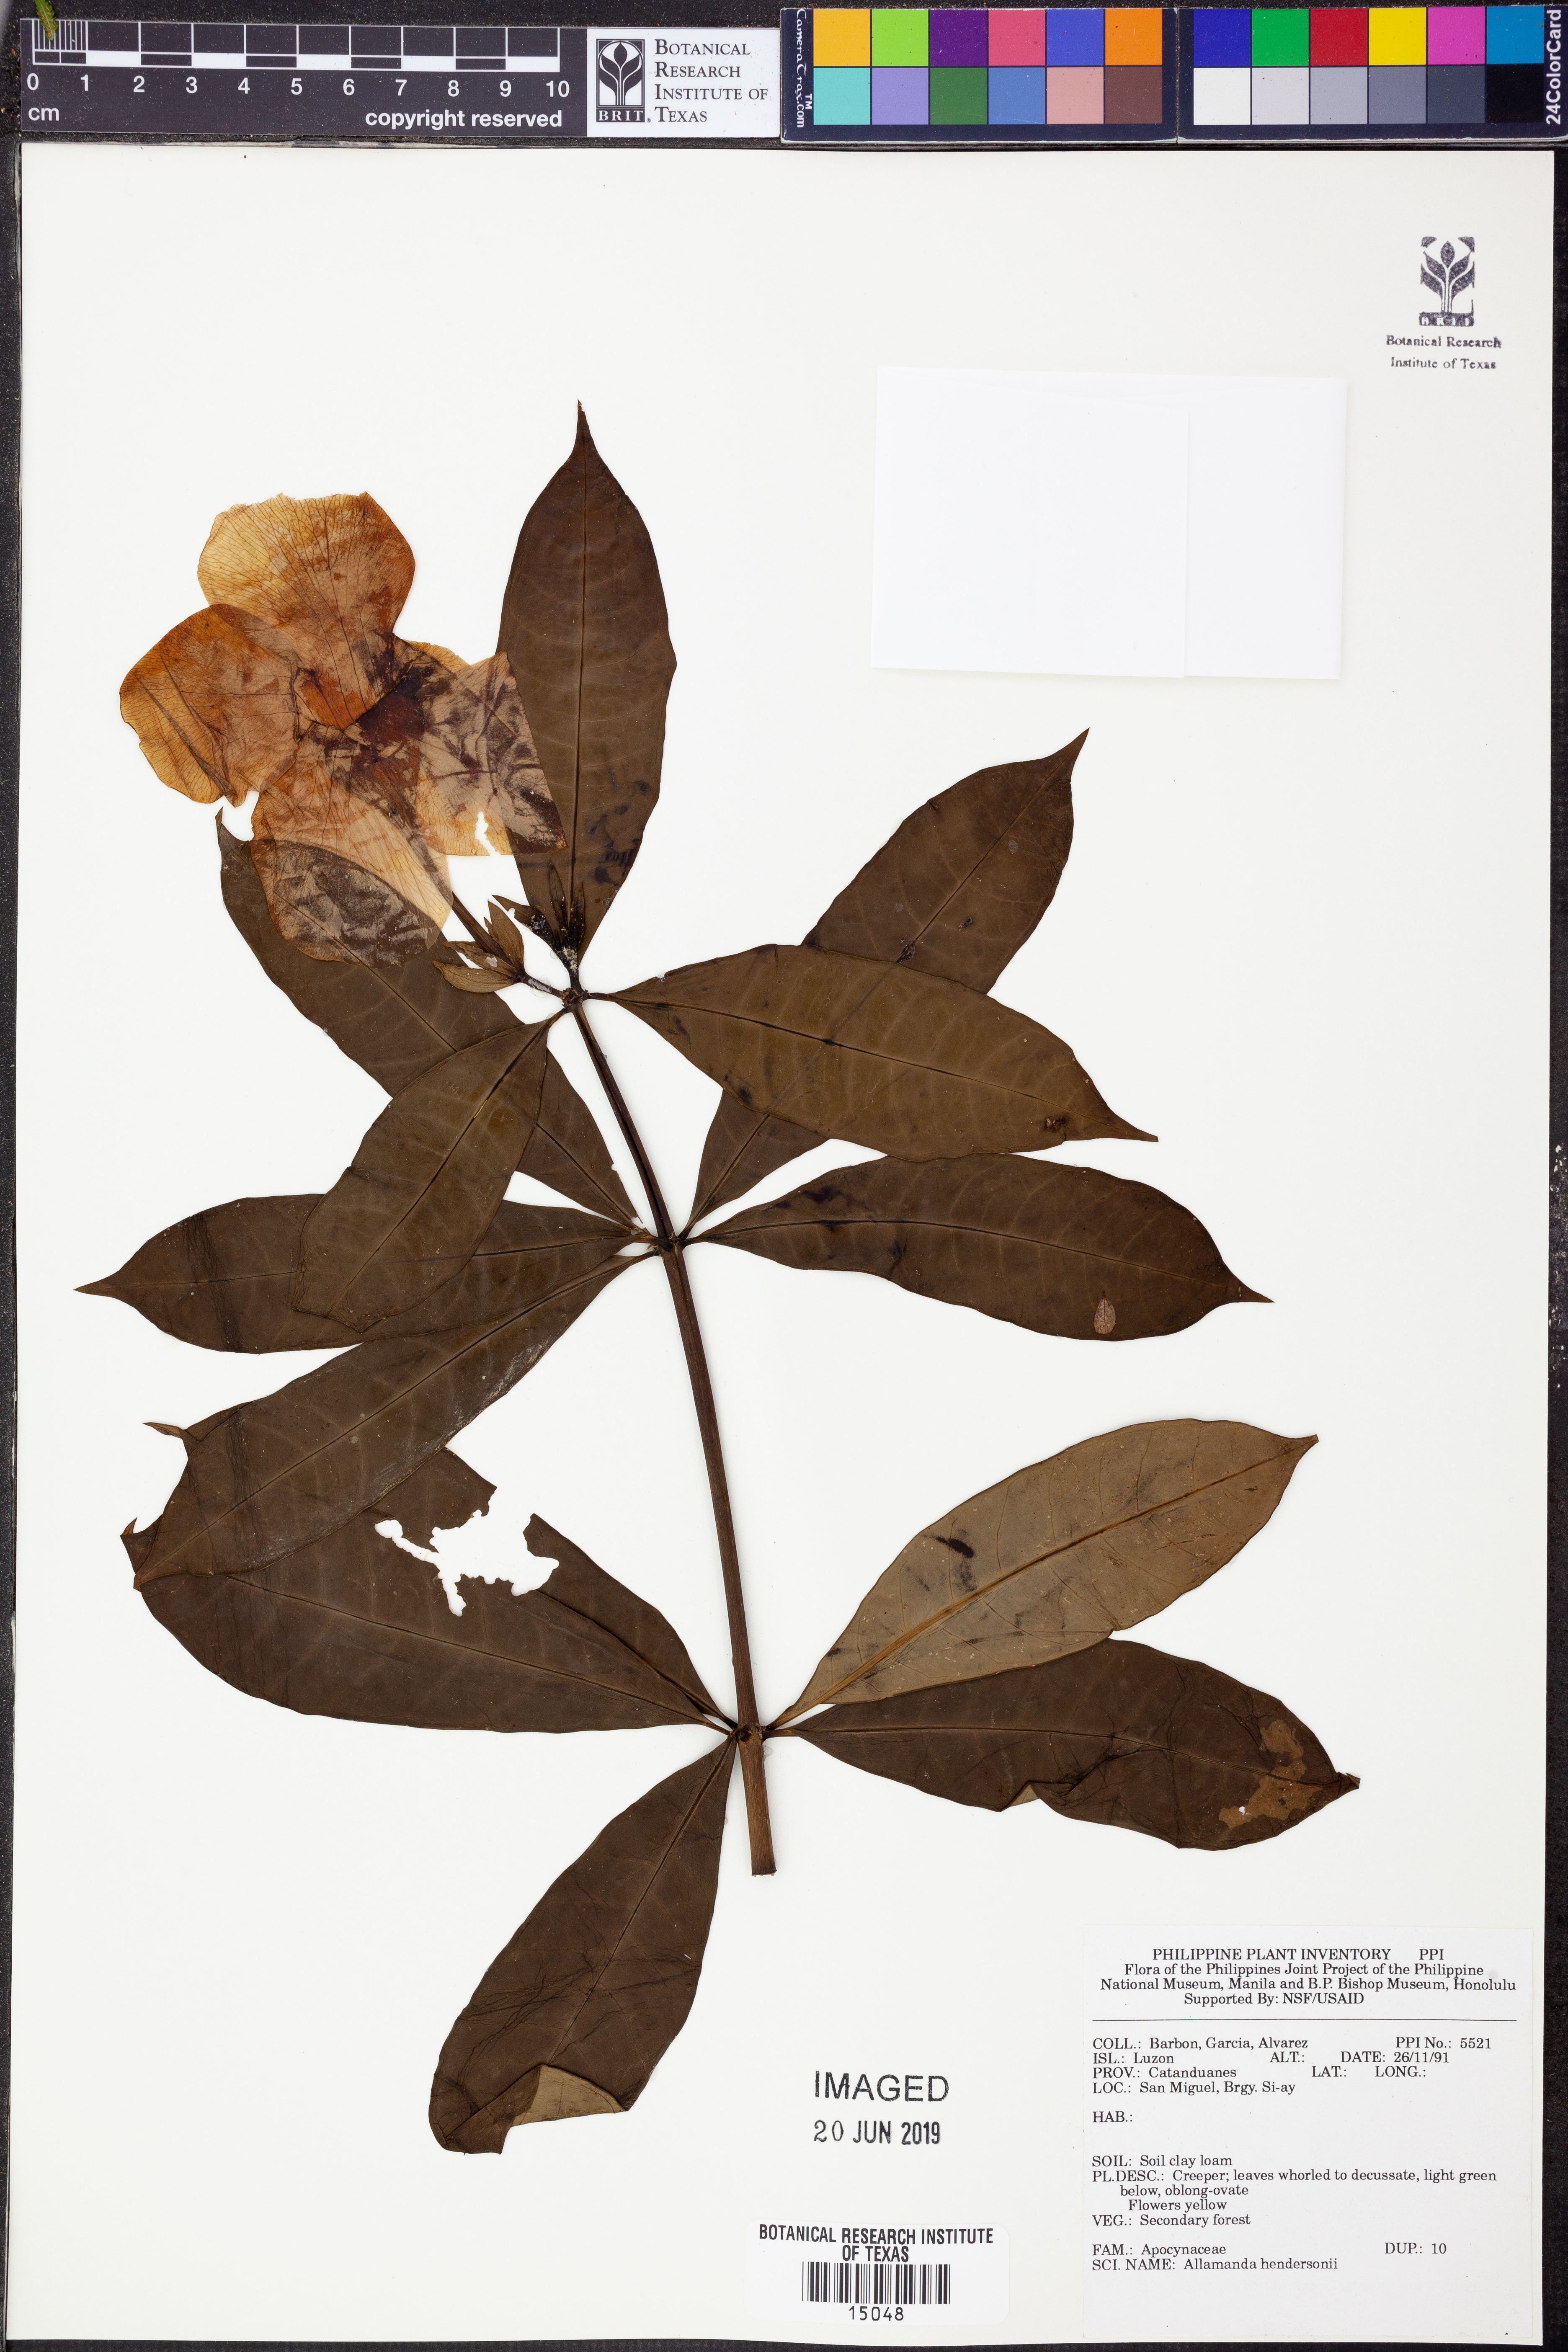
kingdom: Plantae
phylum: Tracheophyta
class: Magnoliopsida
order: Gentianales
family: Apocynaceae
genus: Allamanda
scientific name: Allamanda cathartica
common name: Golden trumpet
